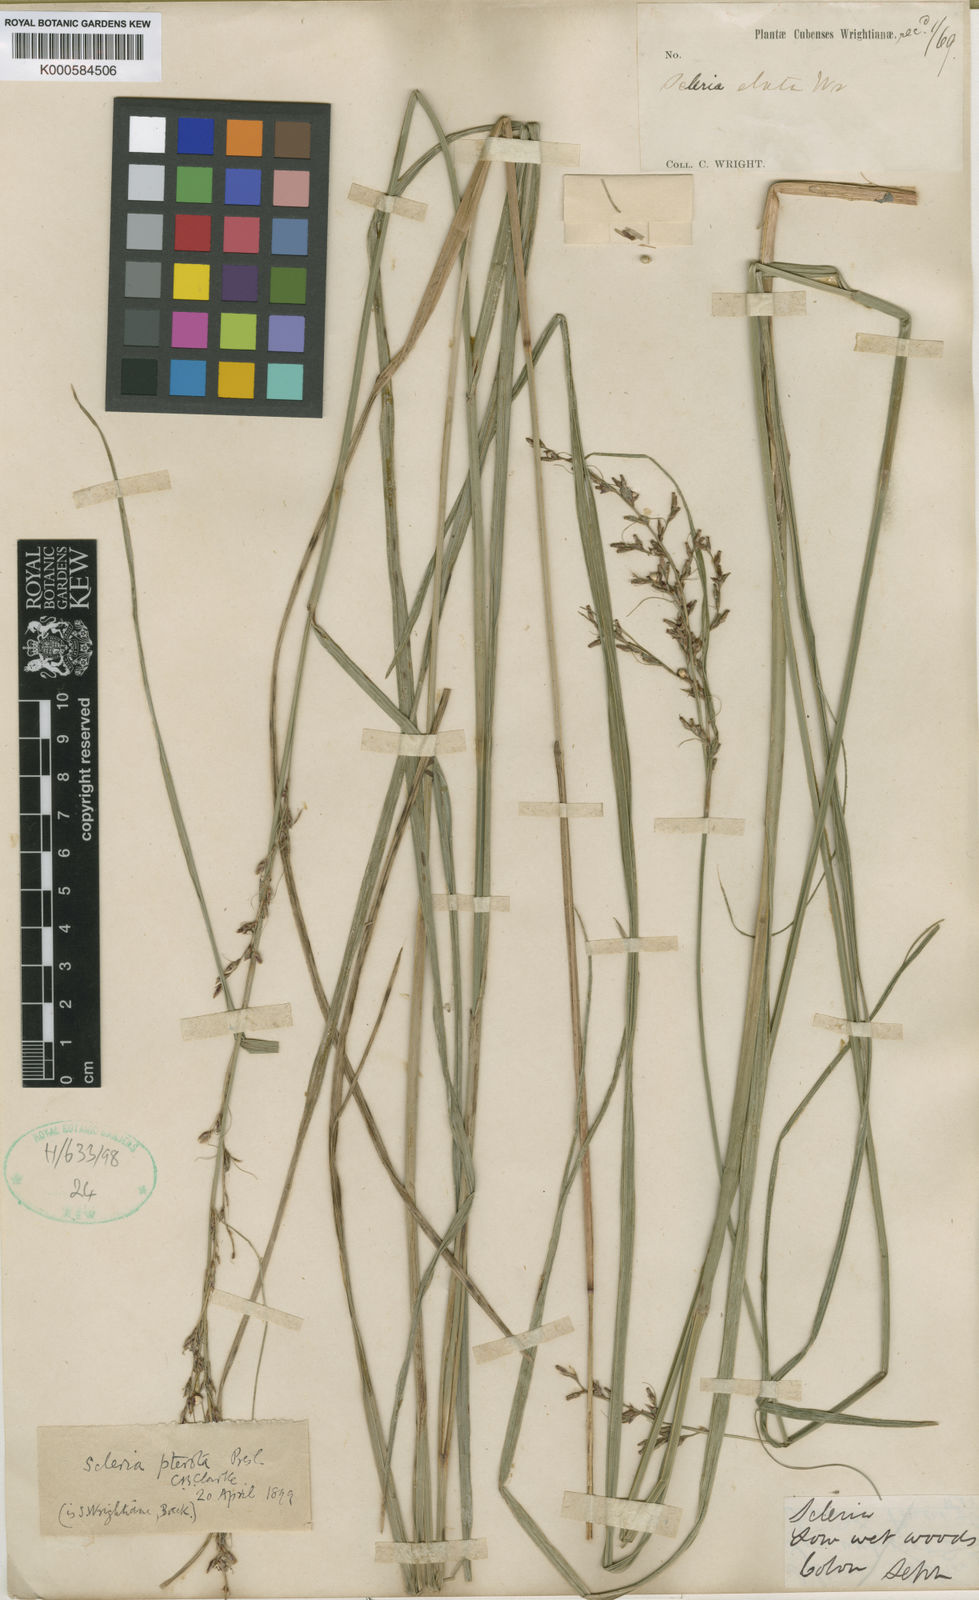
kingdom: Plantae
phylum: Tracheophyta
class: Liliopsida
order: Poales
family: Cyperaceae
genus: Scleria
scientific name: Scleria
